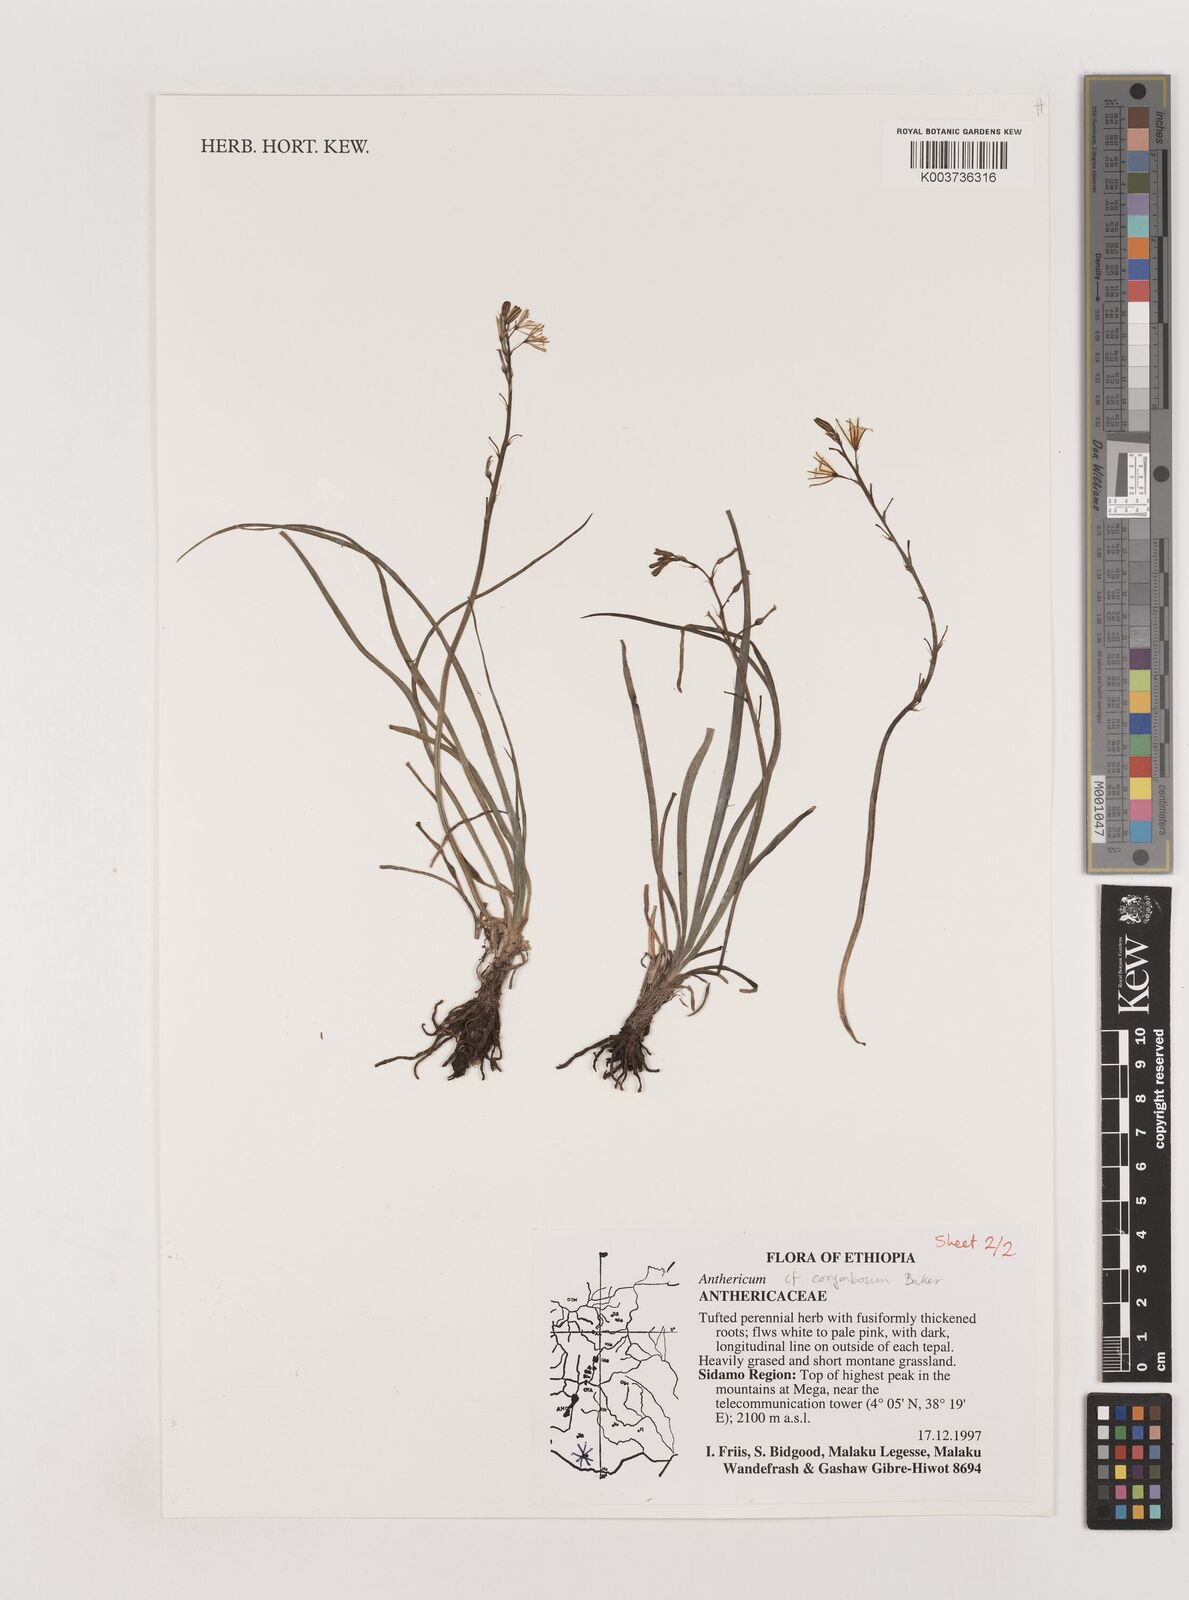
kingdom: Plantae
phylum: Tracheophyta
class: Liliopsida
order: Asparagales
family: Asparagaceae
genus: Anthericum
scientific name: Anthericum corymbosum
